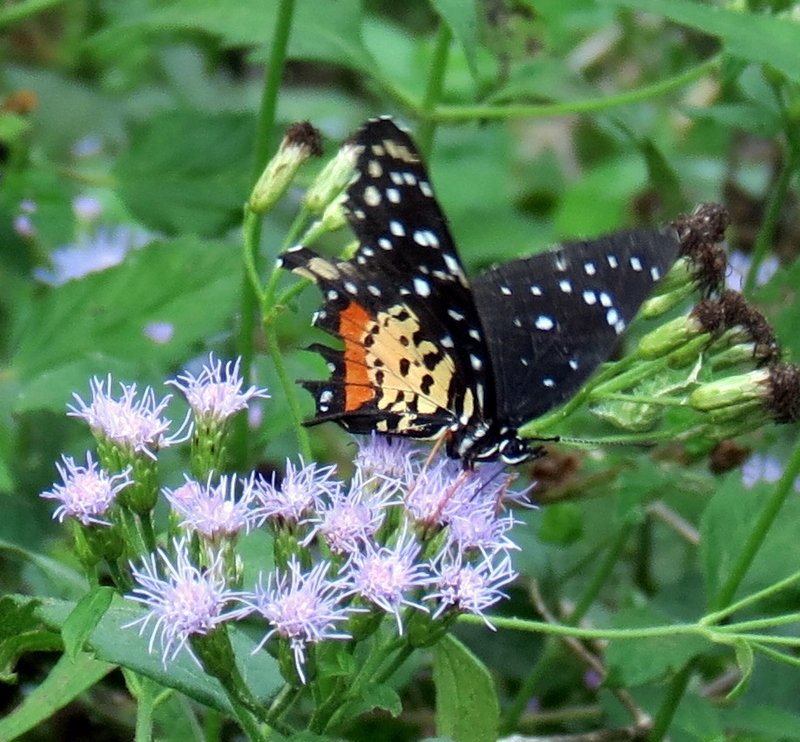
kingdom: Animalia
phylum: Arthropoda
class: Insecta
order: Lepidoptera
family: Nymphalidae
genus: Chlosyne
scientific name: Chlosyne janais
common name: Crimson Patch
